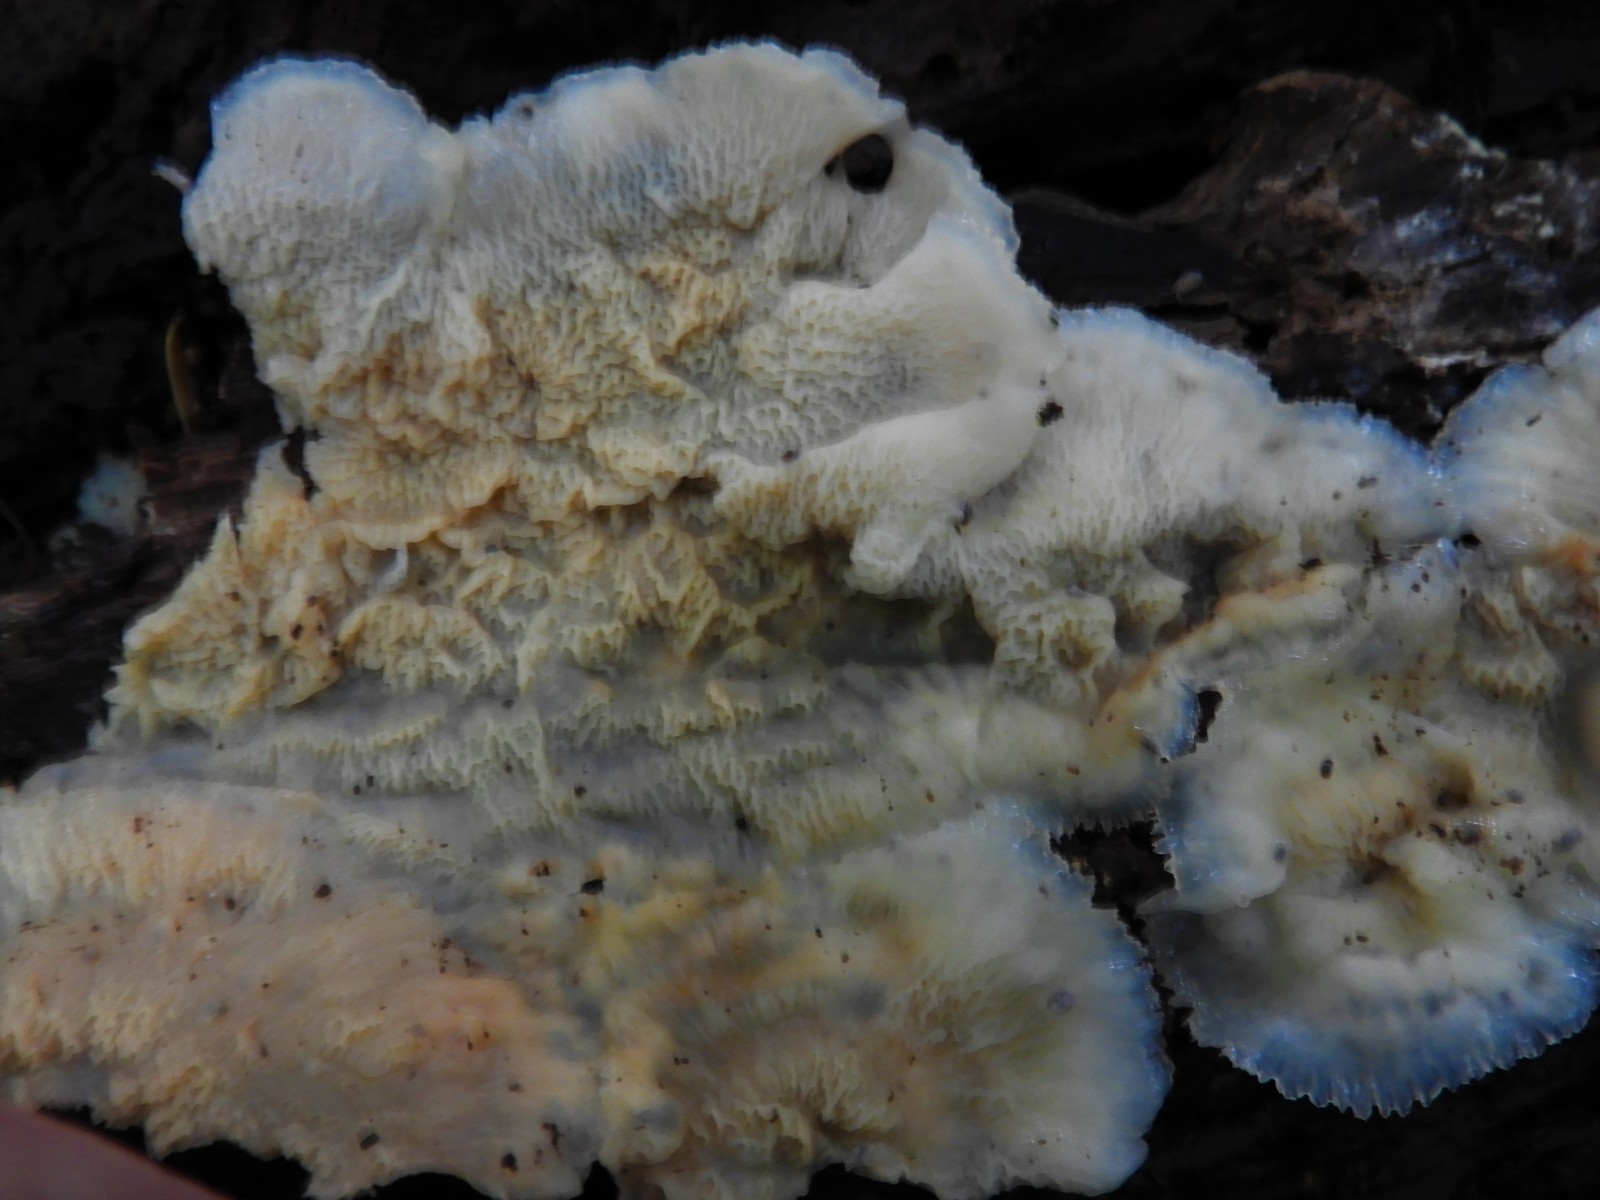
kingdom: Fungi
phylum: Basidiomycota
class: Agaricomycetes
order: Polyporales
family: Meruliaceae
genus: Phlebia
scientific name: Phlebia tremellosa
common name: bævrende åresvamp
